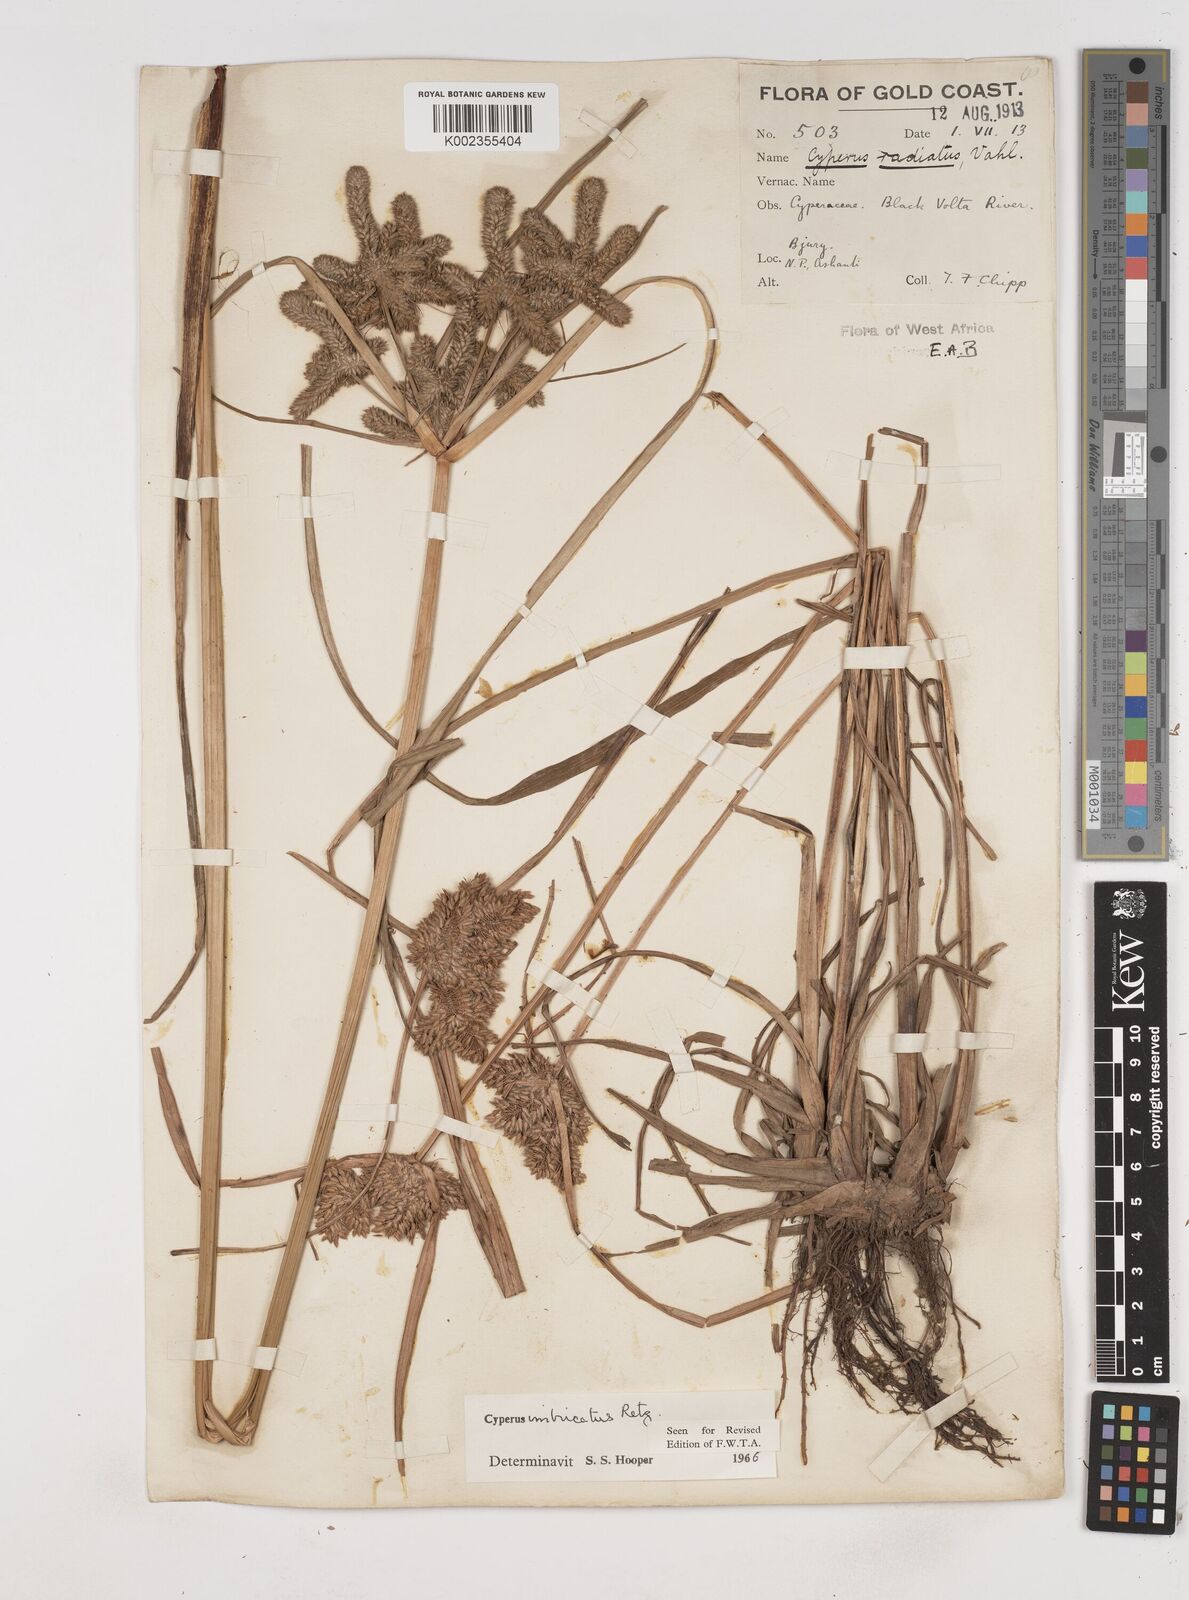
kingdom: Plantae
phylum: Tracheophyta
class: Liliopsida
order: Poales
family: Cyperaceae
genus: Cyperus
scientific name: Cyperus imbricatus
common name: Shingle flatsedge
